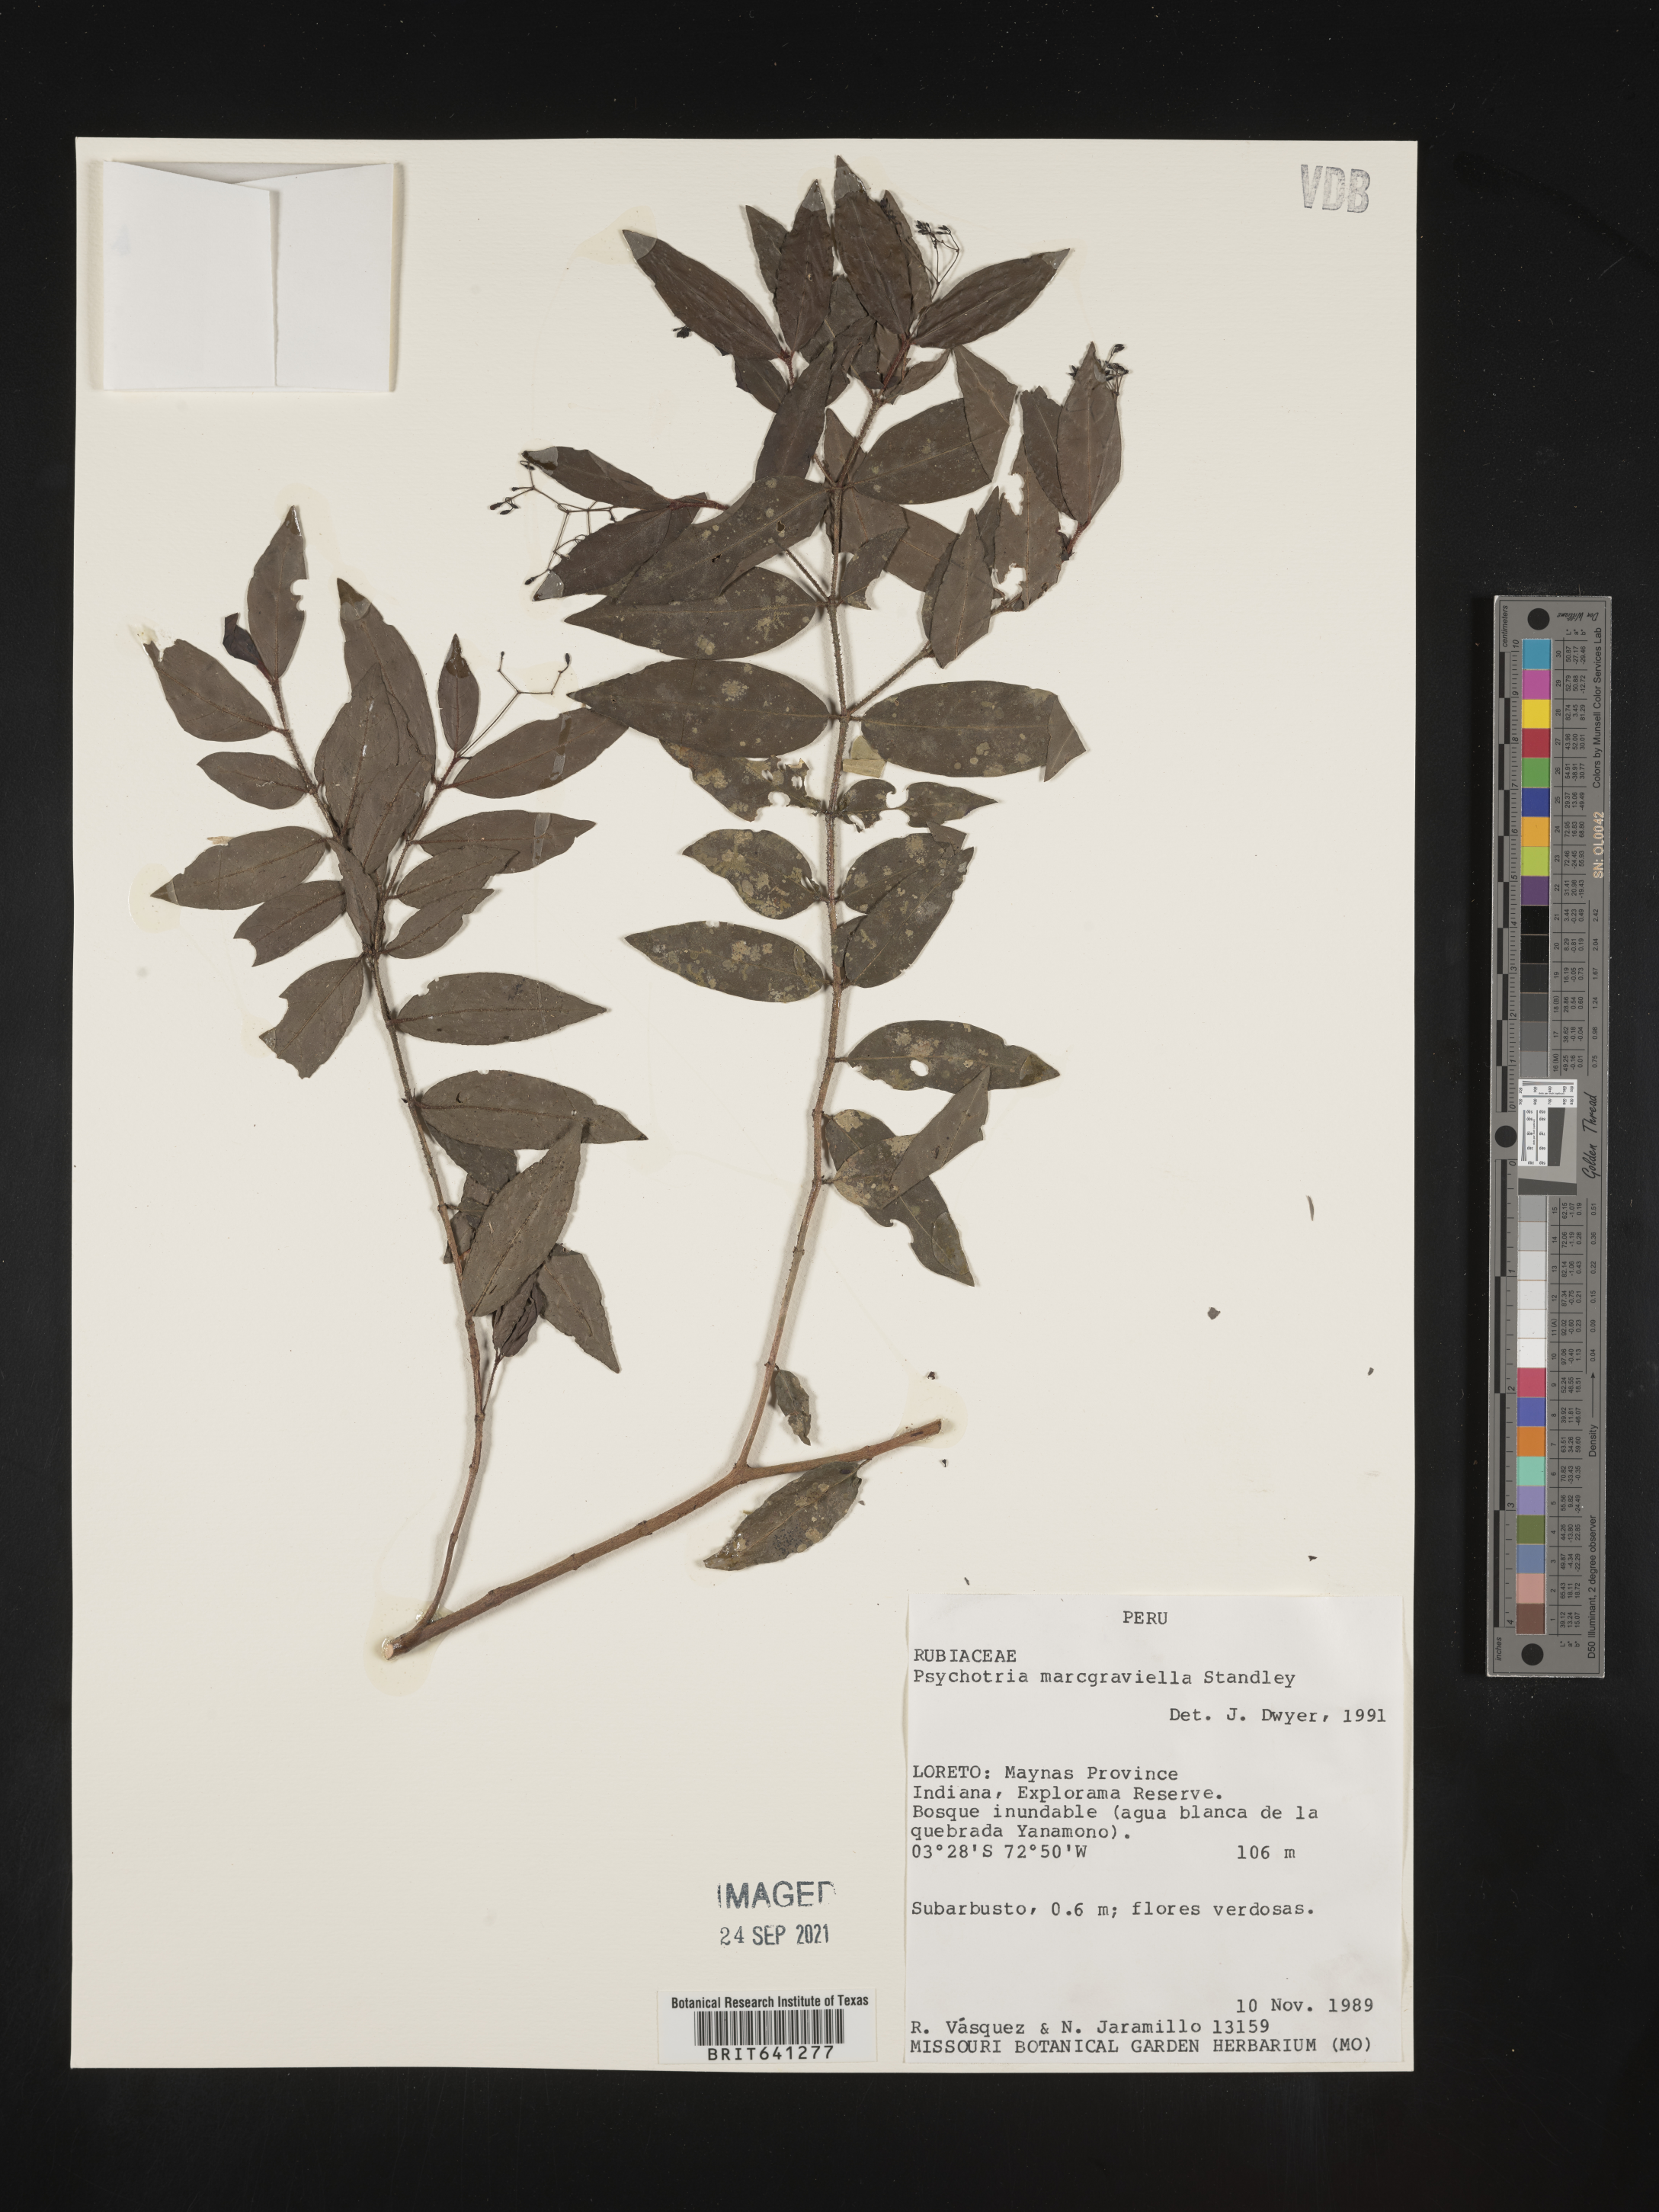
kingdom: Plantae
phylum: Tracheophyta
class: Magnoliopsida
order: Gentianales
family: Rubiaceae
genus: Psychotria
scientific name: Psychotria
